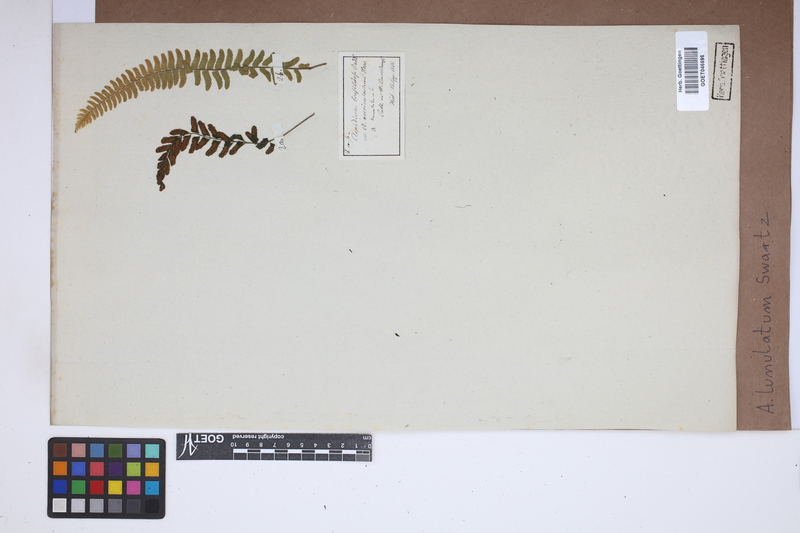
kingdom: Plantae
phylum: Tracheophyta
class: Polypodiopsida
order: Polypodiales
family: Aspleniaceae
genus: Asplenium
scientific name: Asplenium lunulatum
